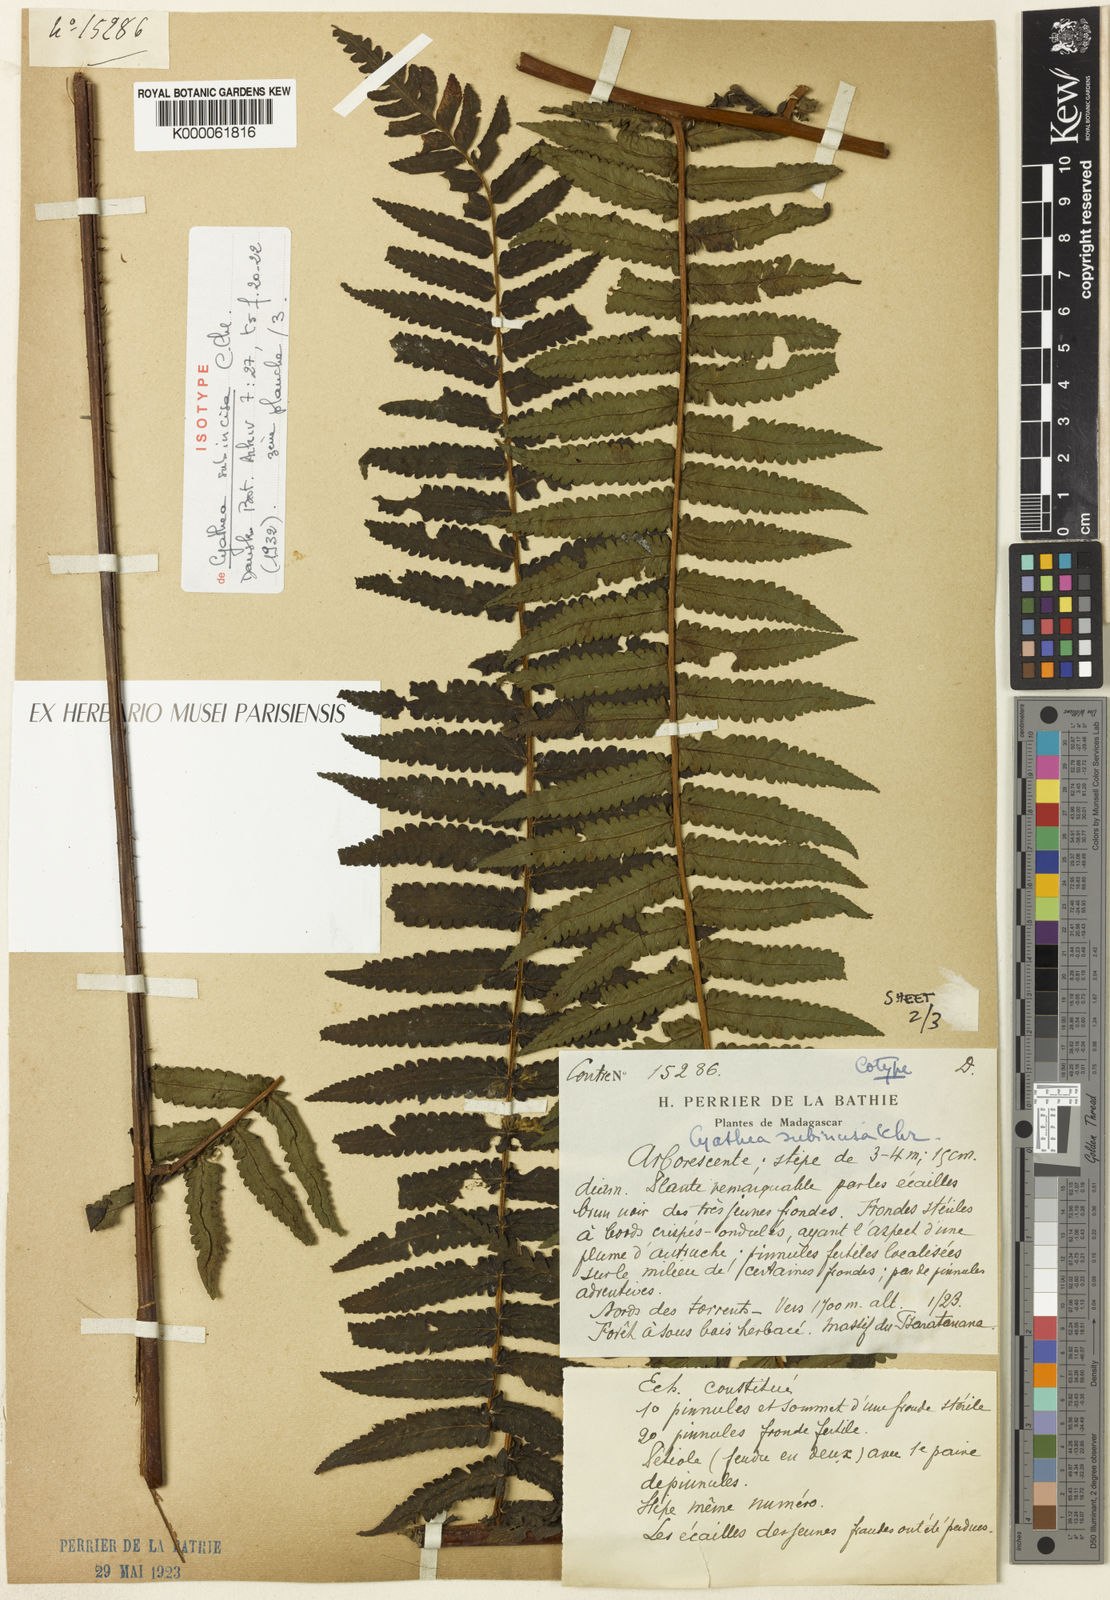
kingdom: Plantae
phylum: Tracheophyta
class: Polypodiopsida
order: Cyatheales
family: Cyatheaceae
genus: Alsophila
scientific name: Alsophila tsaratananensis
